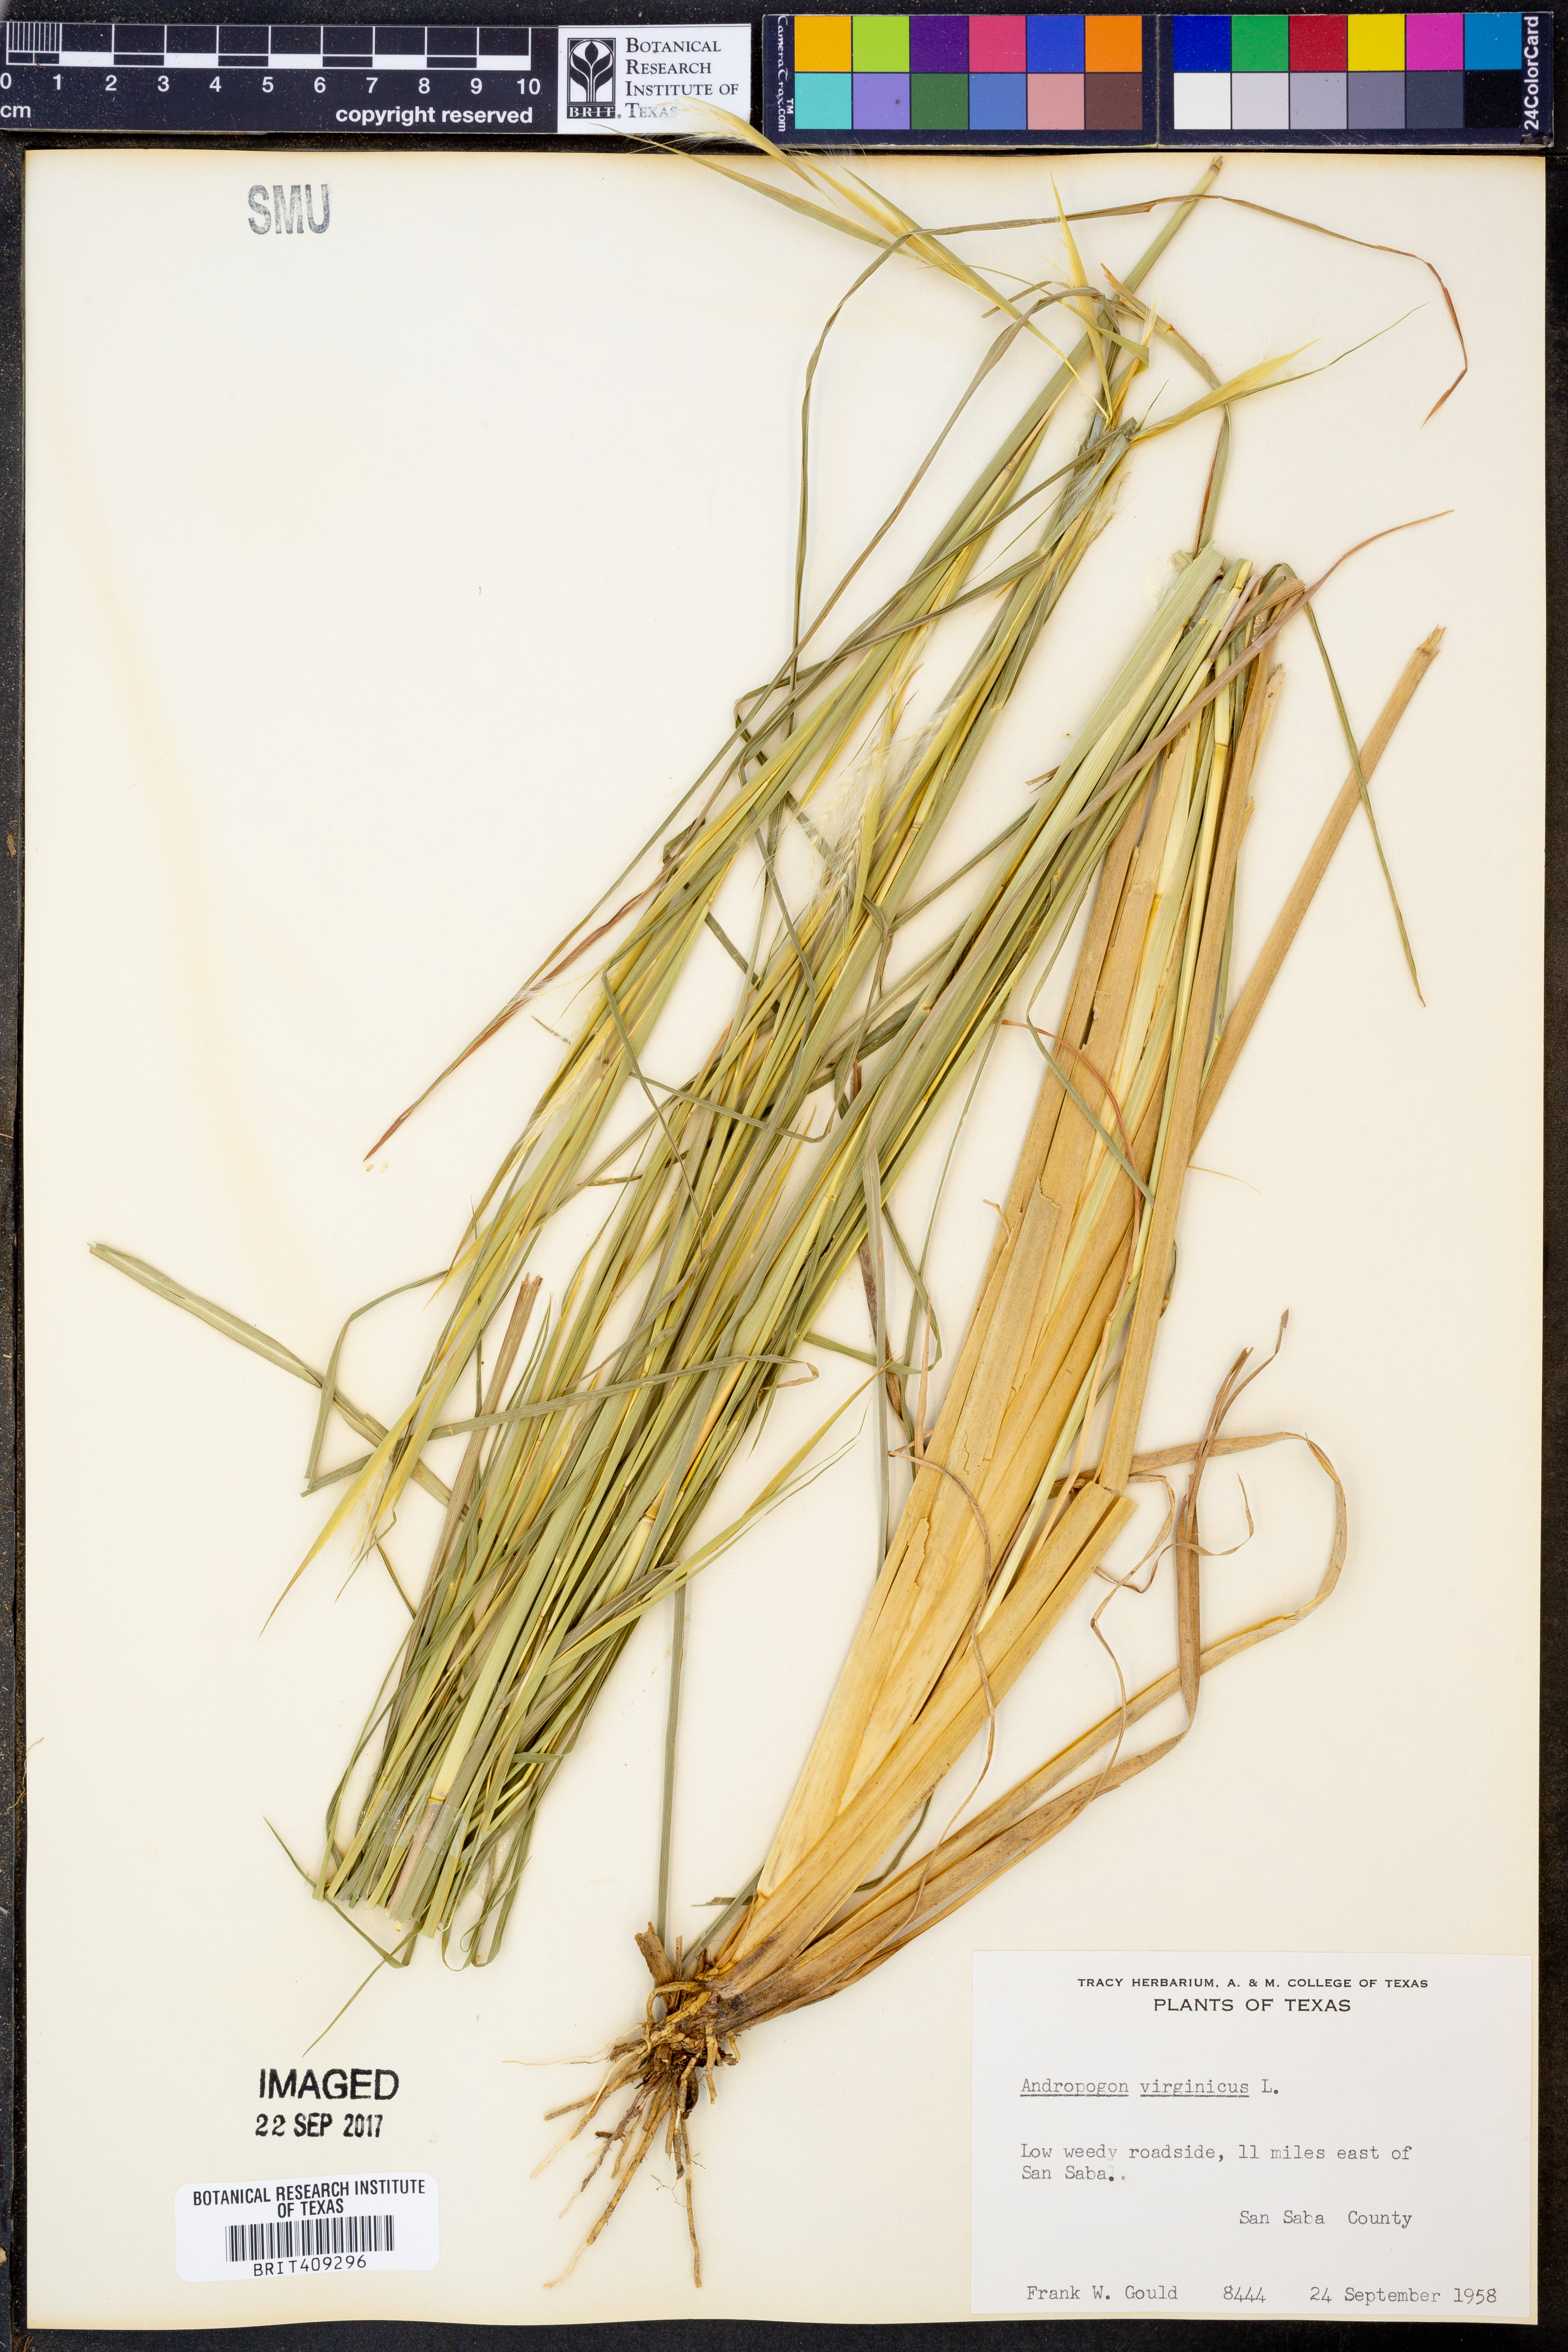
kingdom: Plantae
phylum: Tracheophyta
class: Liliopsida
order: Poales
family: Poaceae
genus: Andropogon
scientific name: Andropogon virginicus
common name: Broomsedge bluestem
